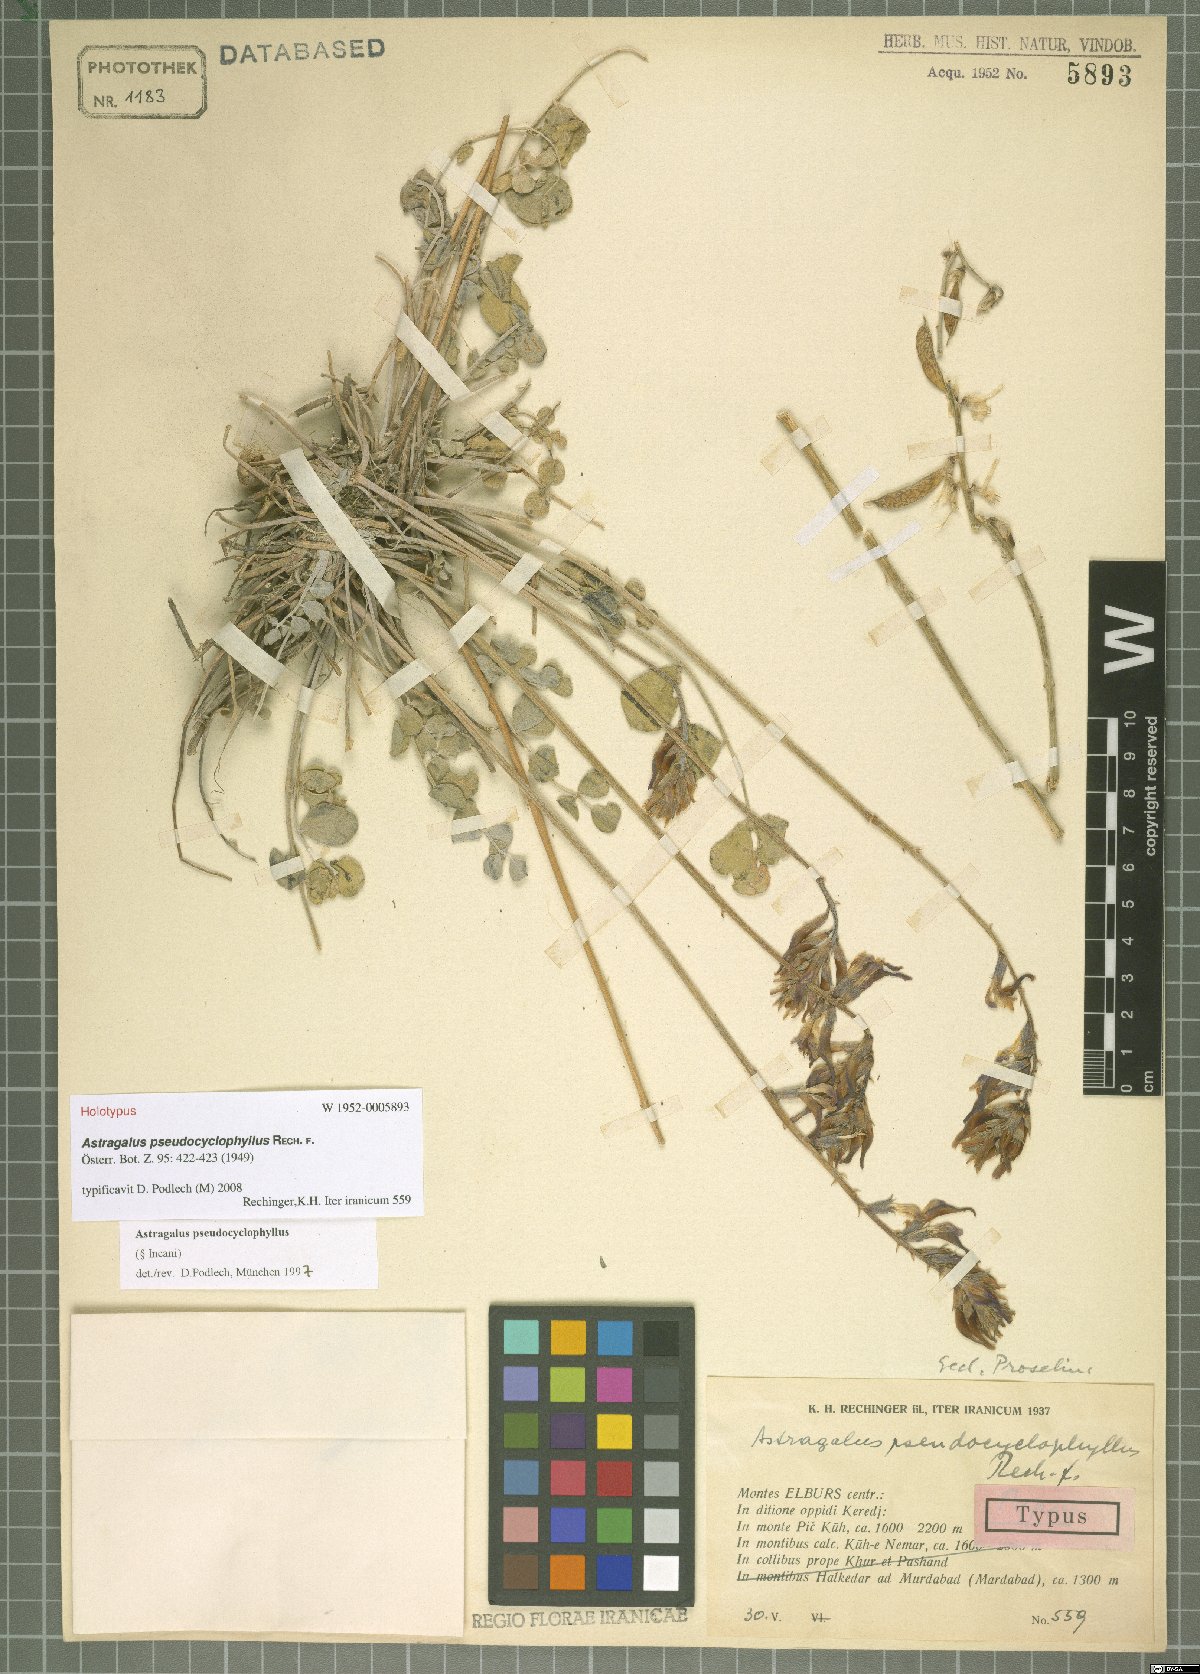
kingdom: Plantae
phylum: Tracheophyta
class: Magnoliopsida
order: Fabales
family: Fabaceae
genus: Astragalus
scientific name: Astragalus pseudocyclophyllus
